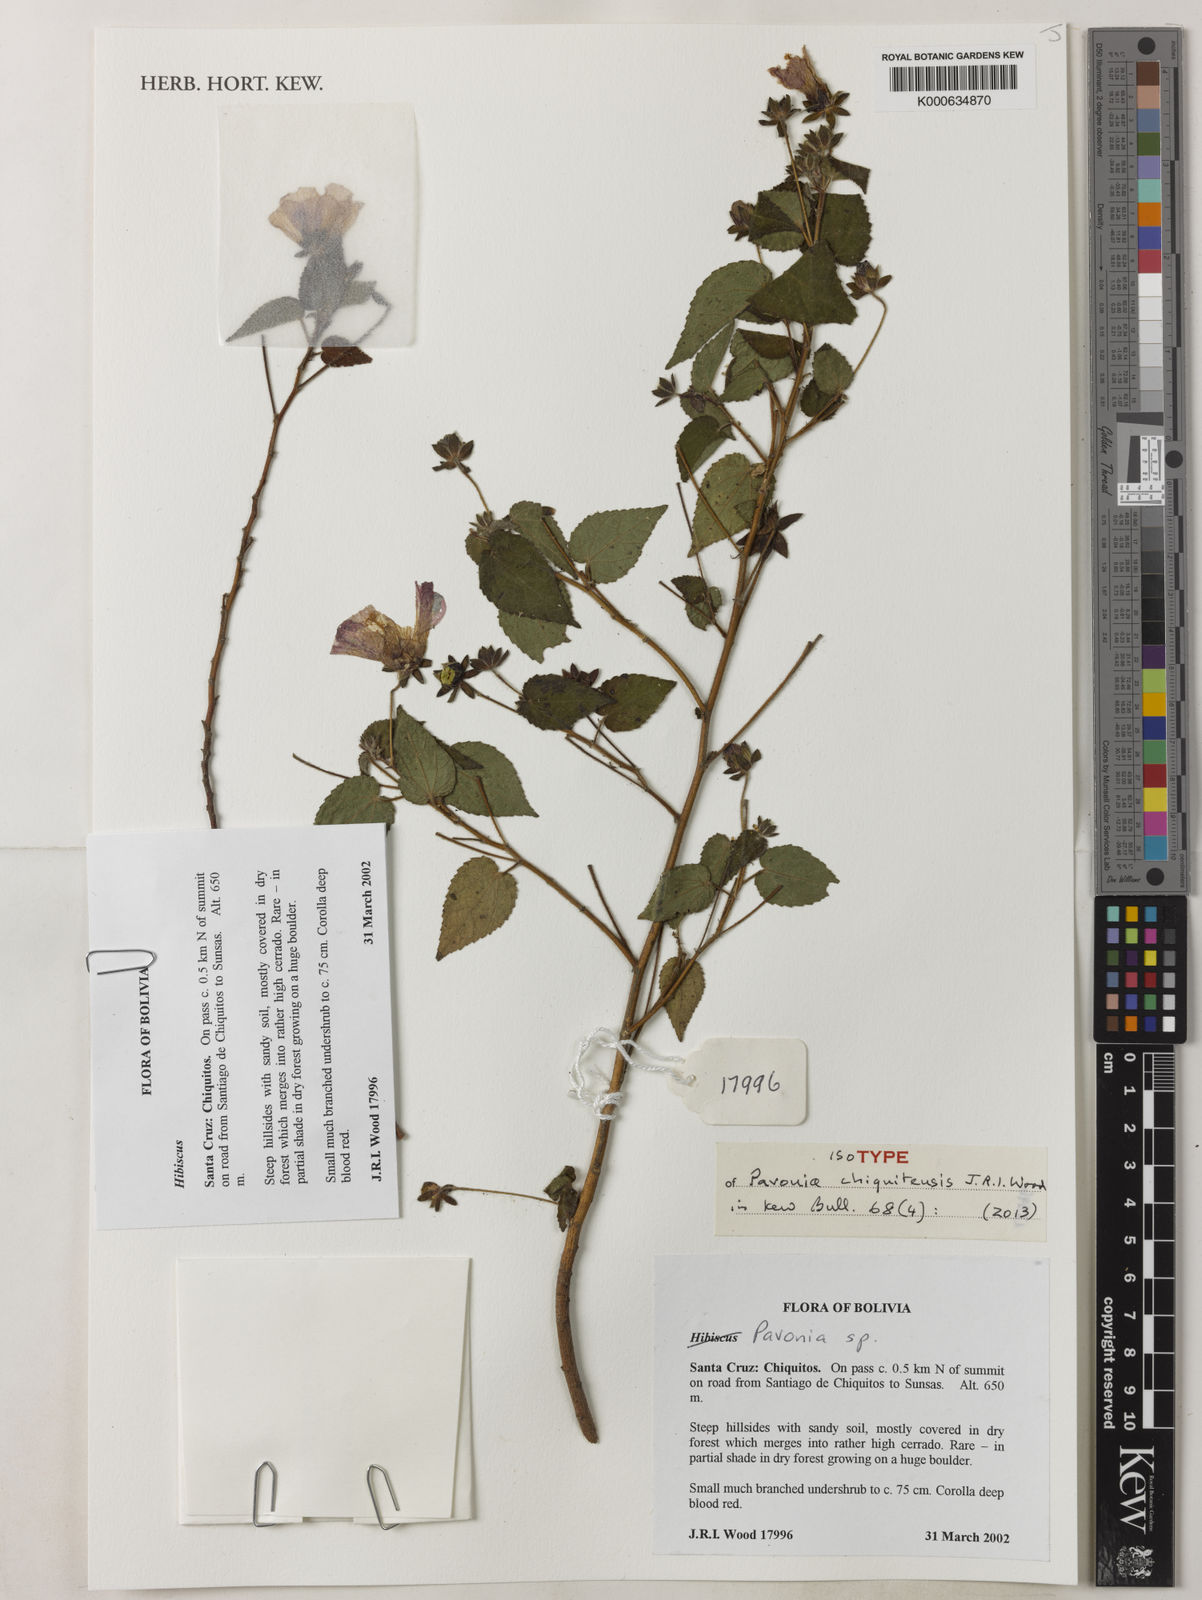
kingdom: Plantae
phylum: Tracheophyta
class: Magnoliopsida
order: Malvales
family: Malvaceae
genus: Pavonia
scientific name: Pavonia chiquitensis
